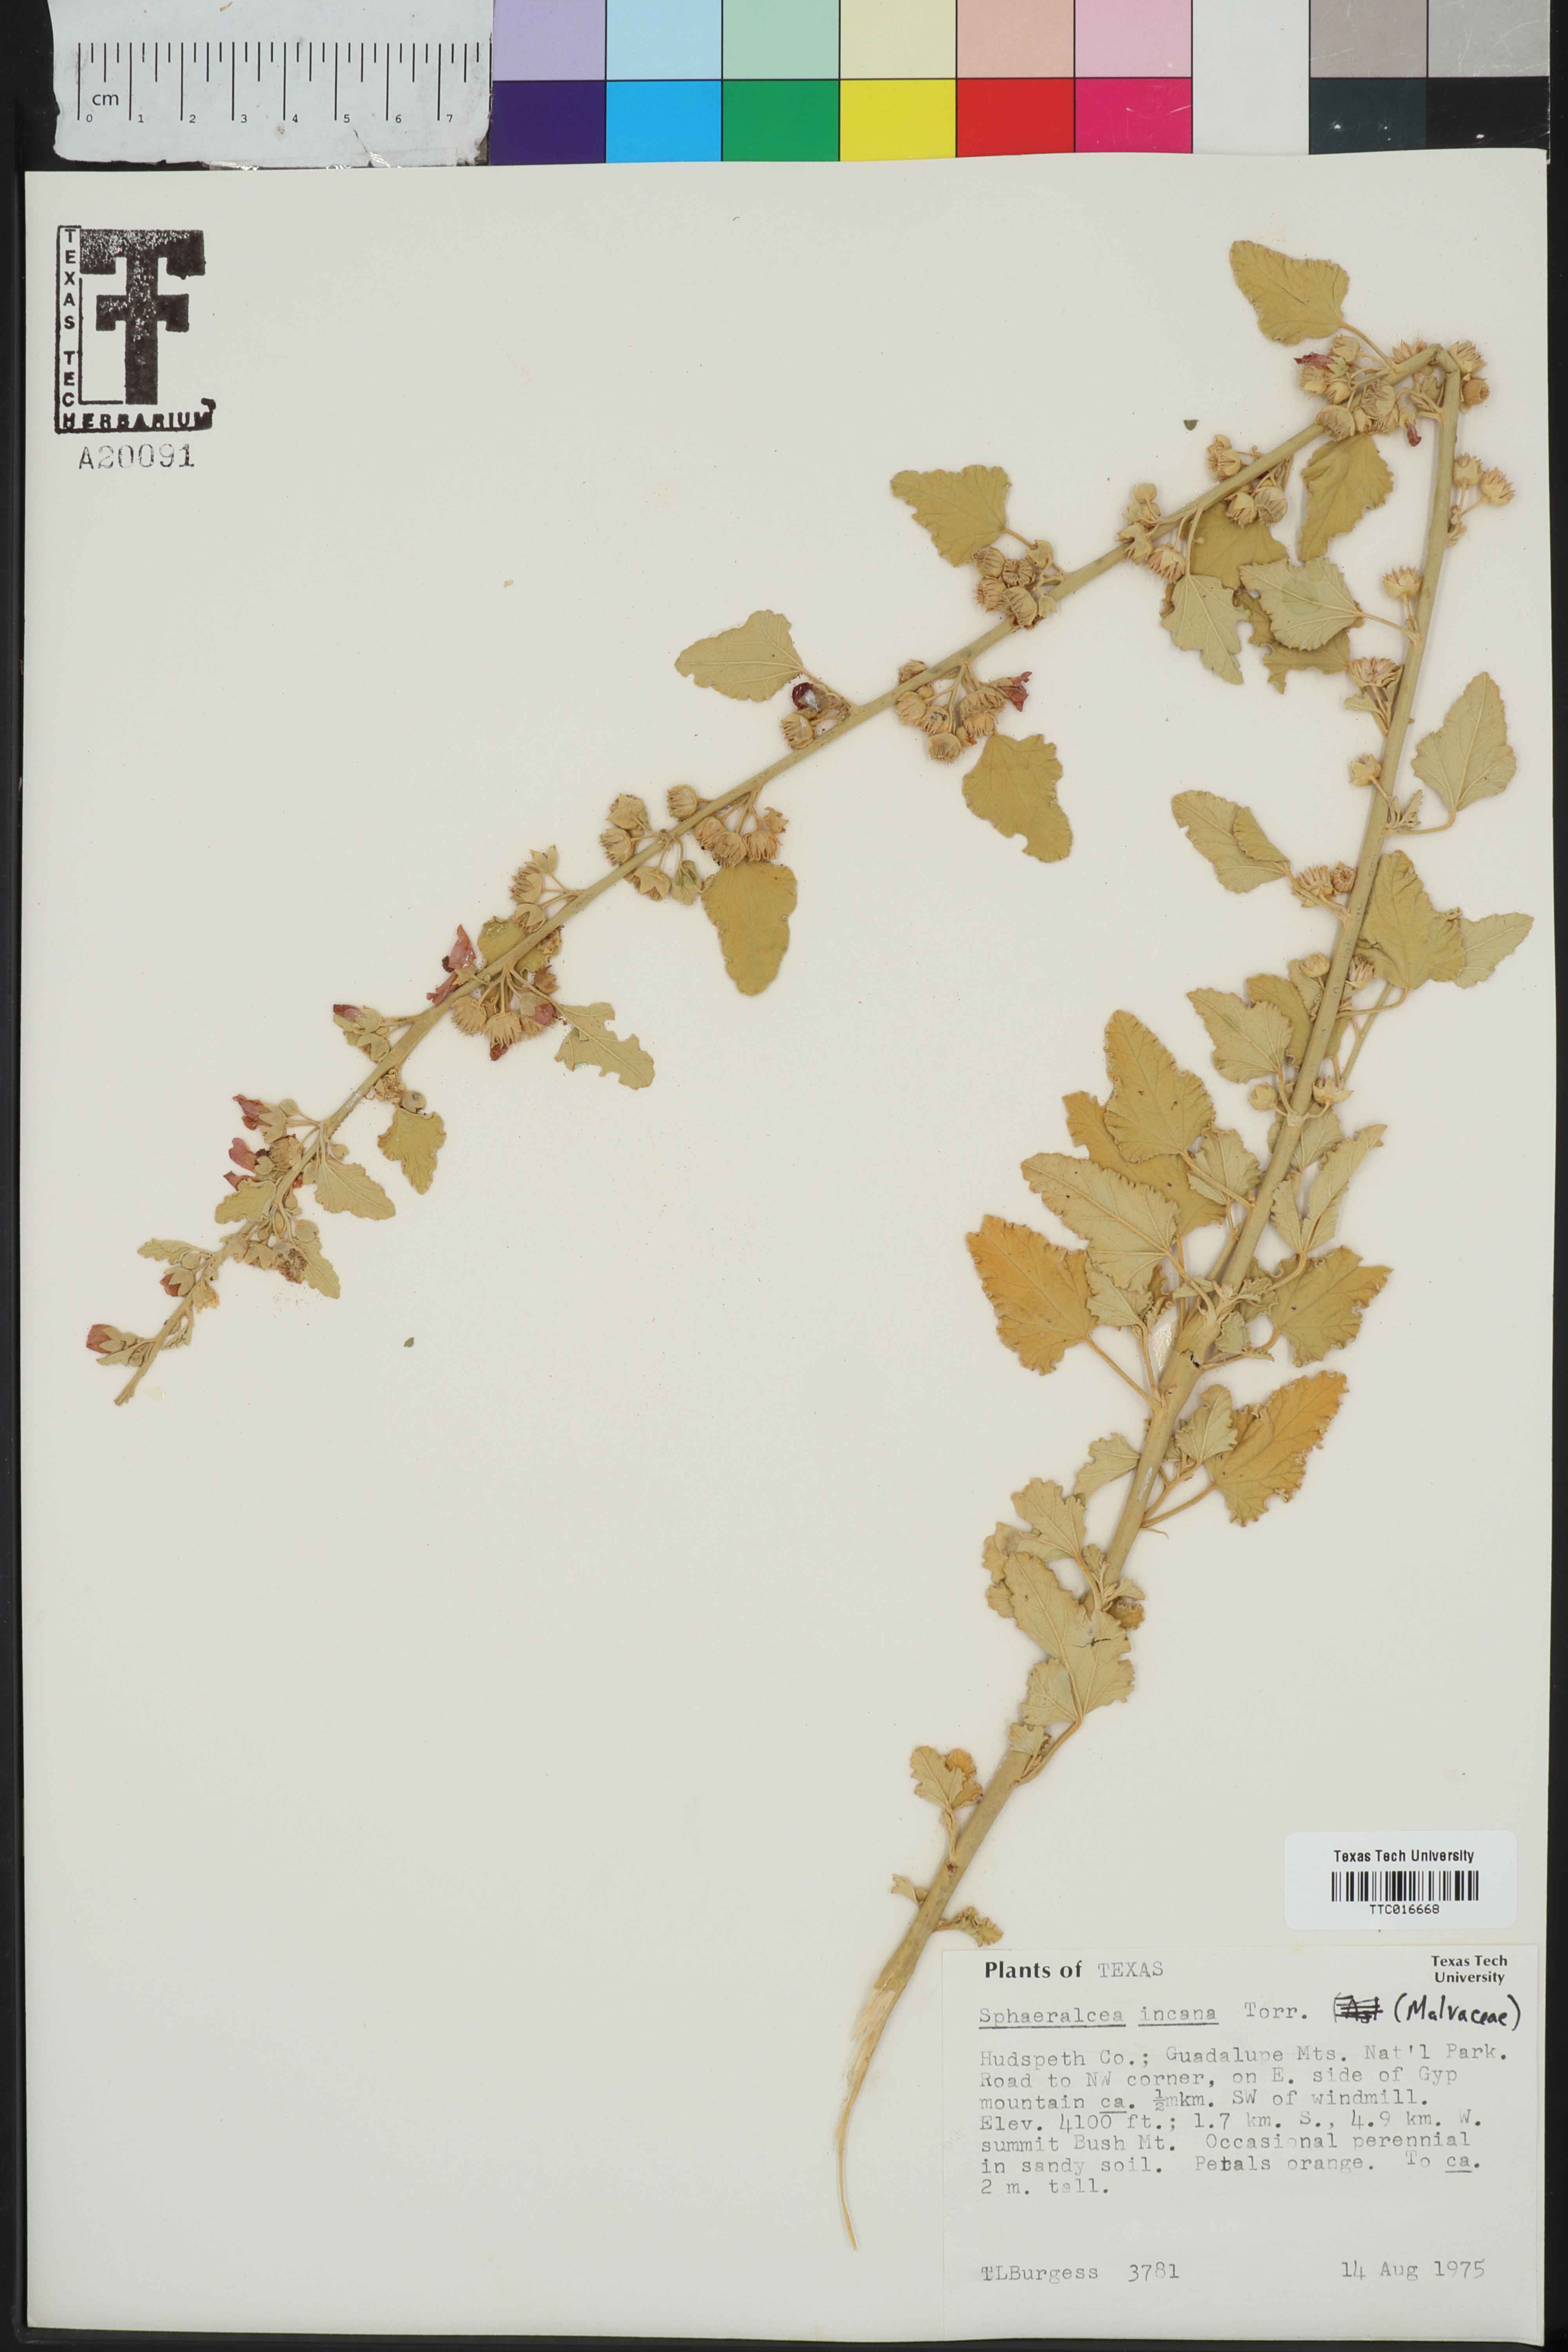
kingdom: Plantae
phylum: Tracheophyta
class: Magnoliopsida
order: Malvales
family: Malvaceae
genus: Sphaeralcea
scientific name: Sphaeralcea incana
